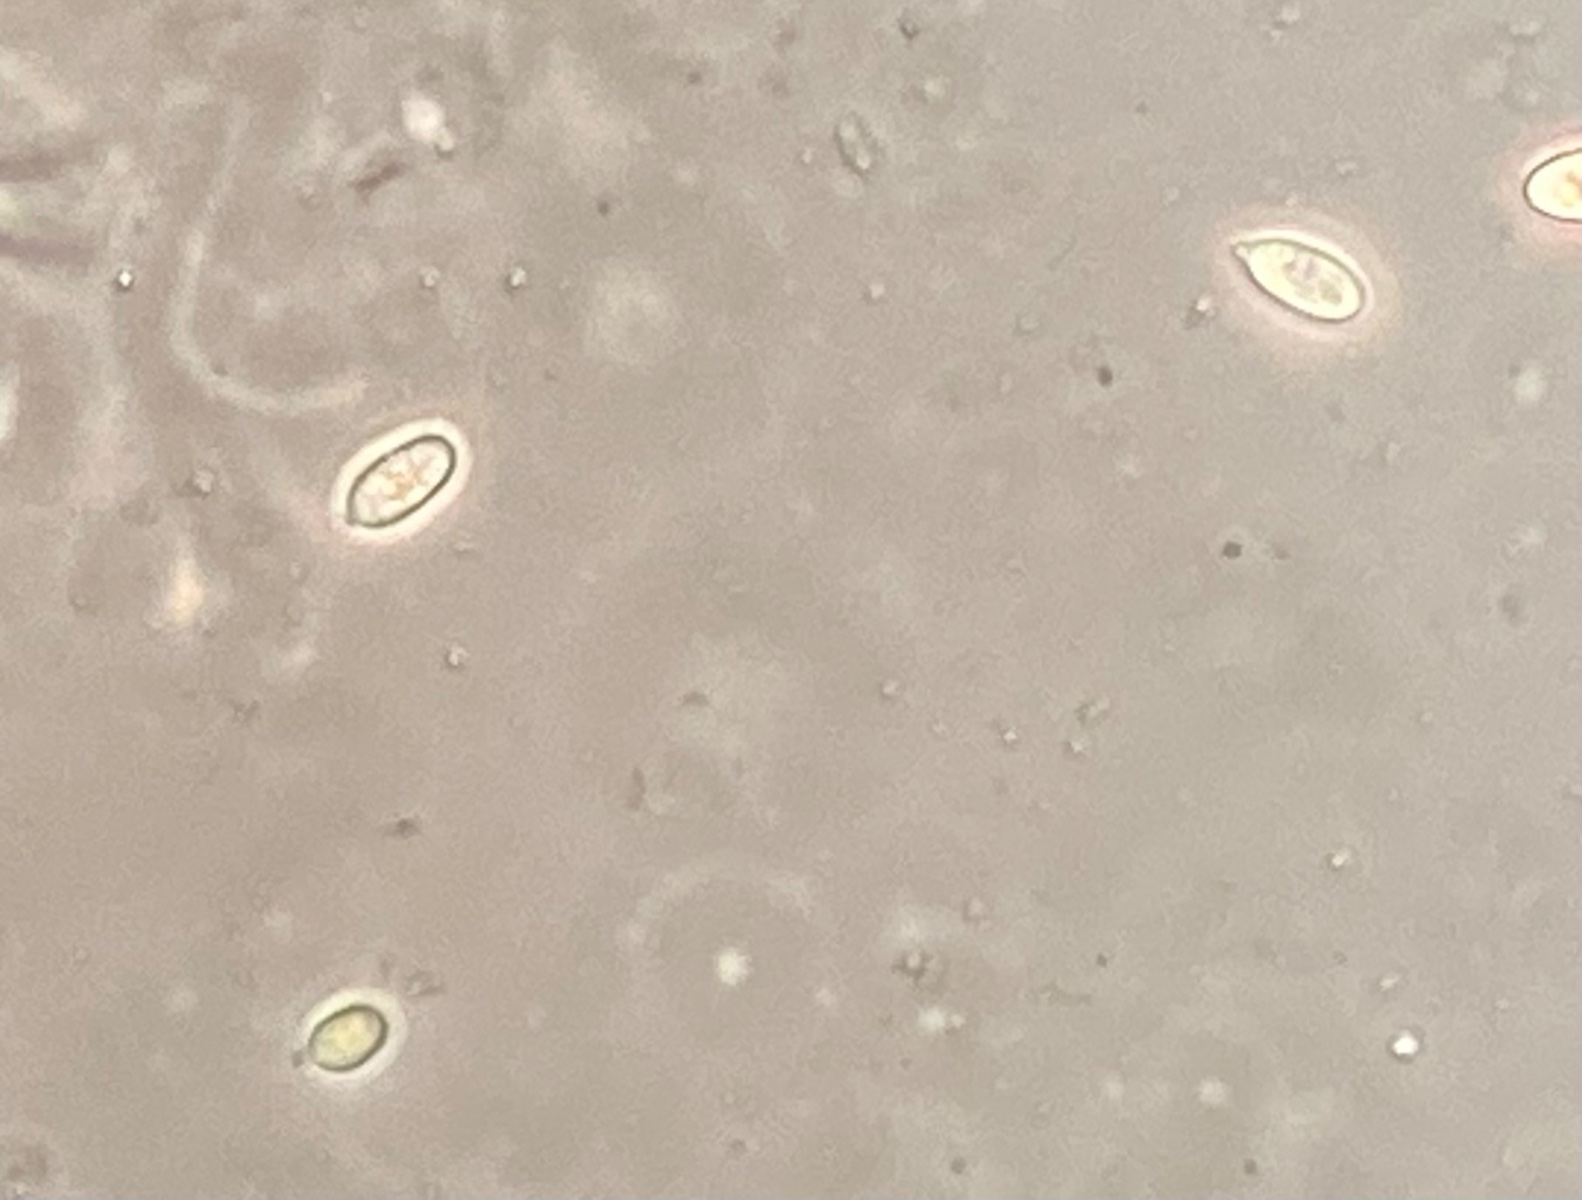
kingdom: Fungi
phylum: Ascomycota
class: Sordariomycetes
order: Hypocreales
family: Cordycipitaceae
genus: Isaria
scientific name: Isaria friesii
